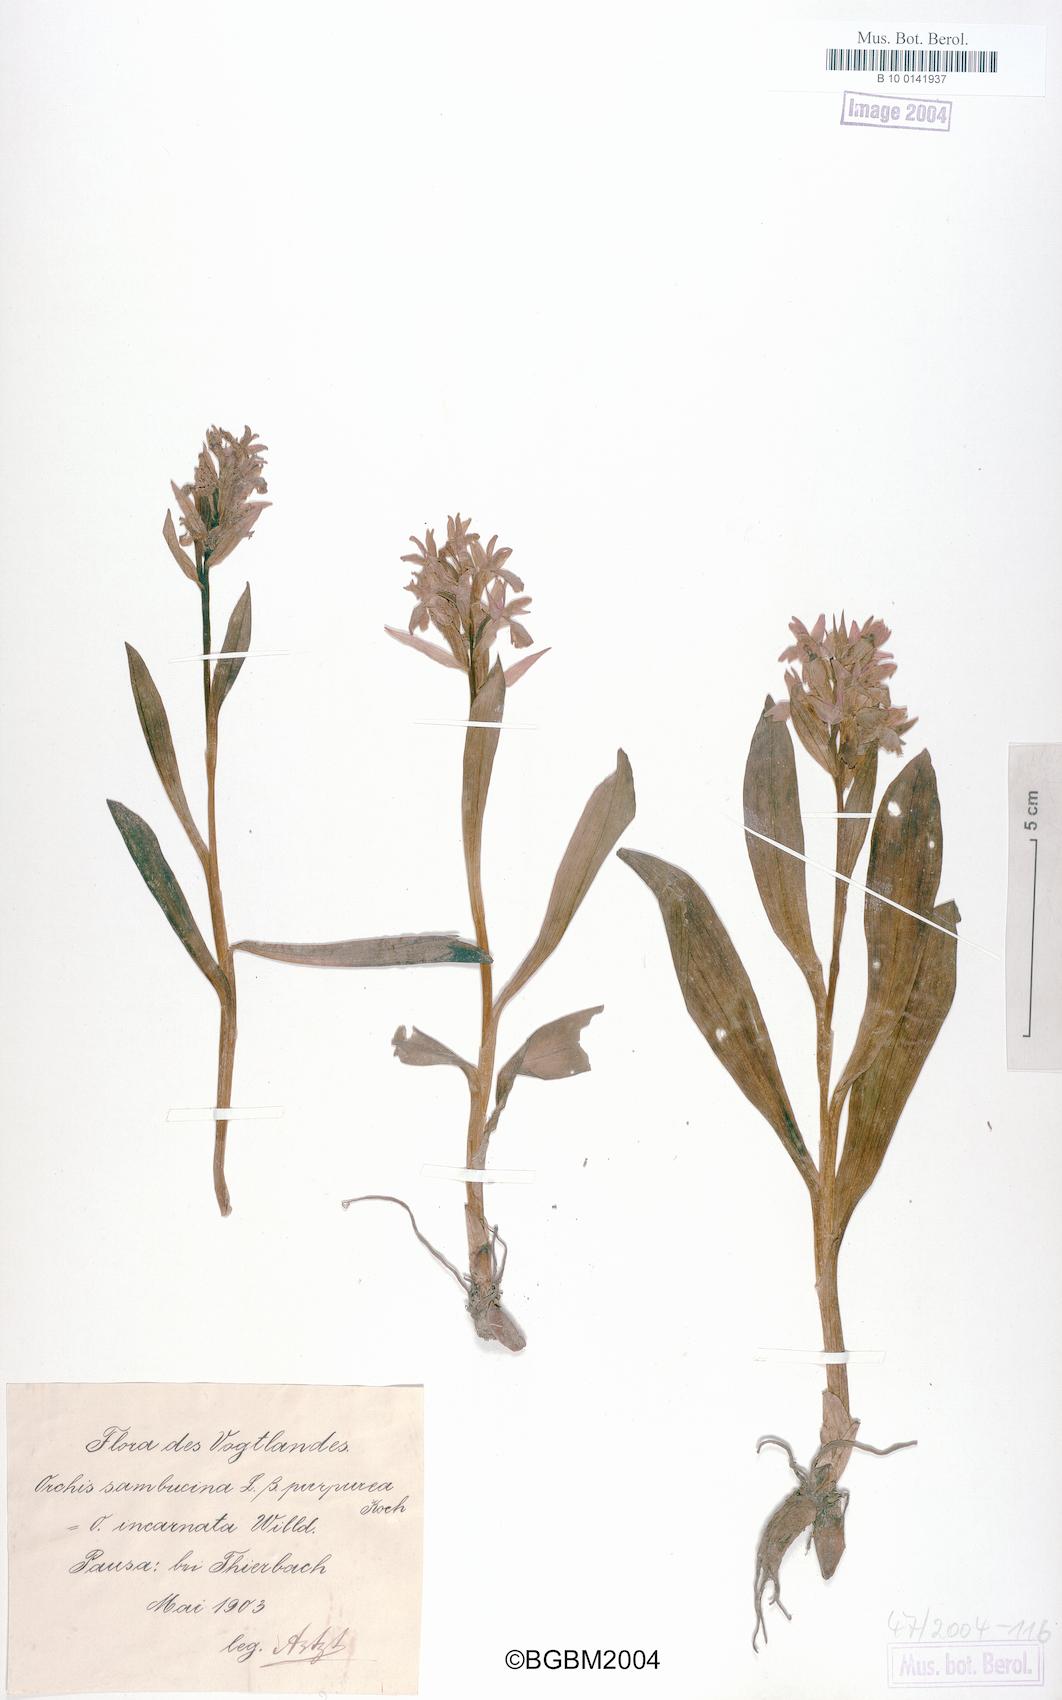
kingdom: Plantae
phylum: Tracheophyta
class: Liliopsida
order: Asparagales
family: Orchidaceae
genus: Dactylorhiza
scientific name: Dactylorhiza incarnata
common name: Early marsh-orchid
